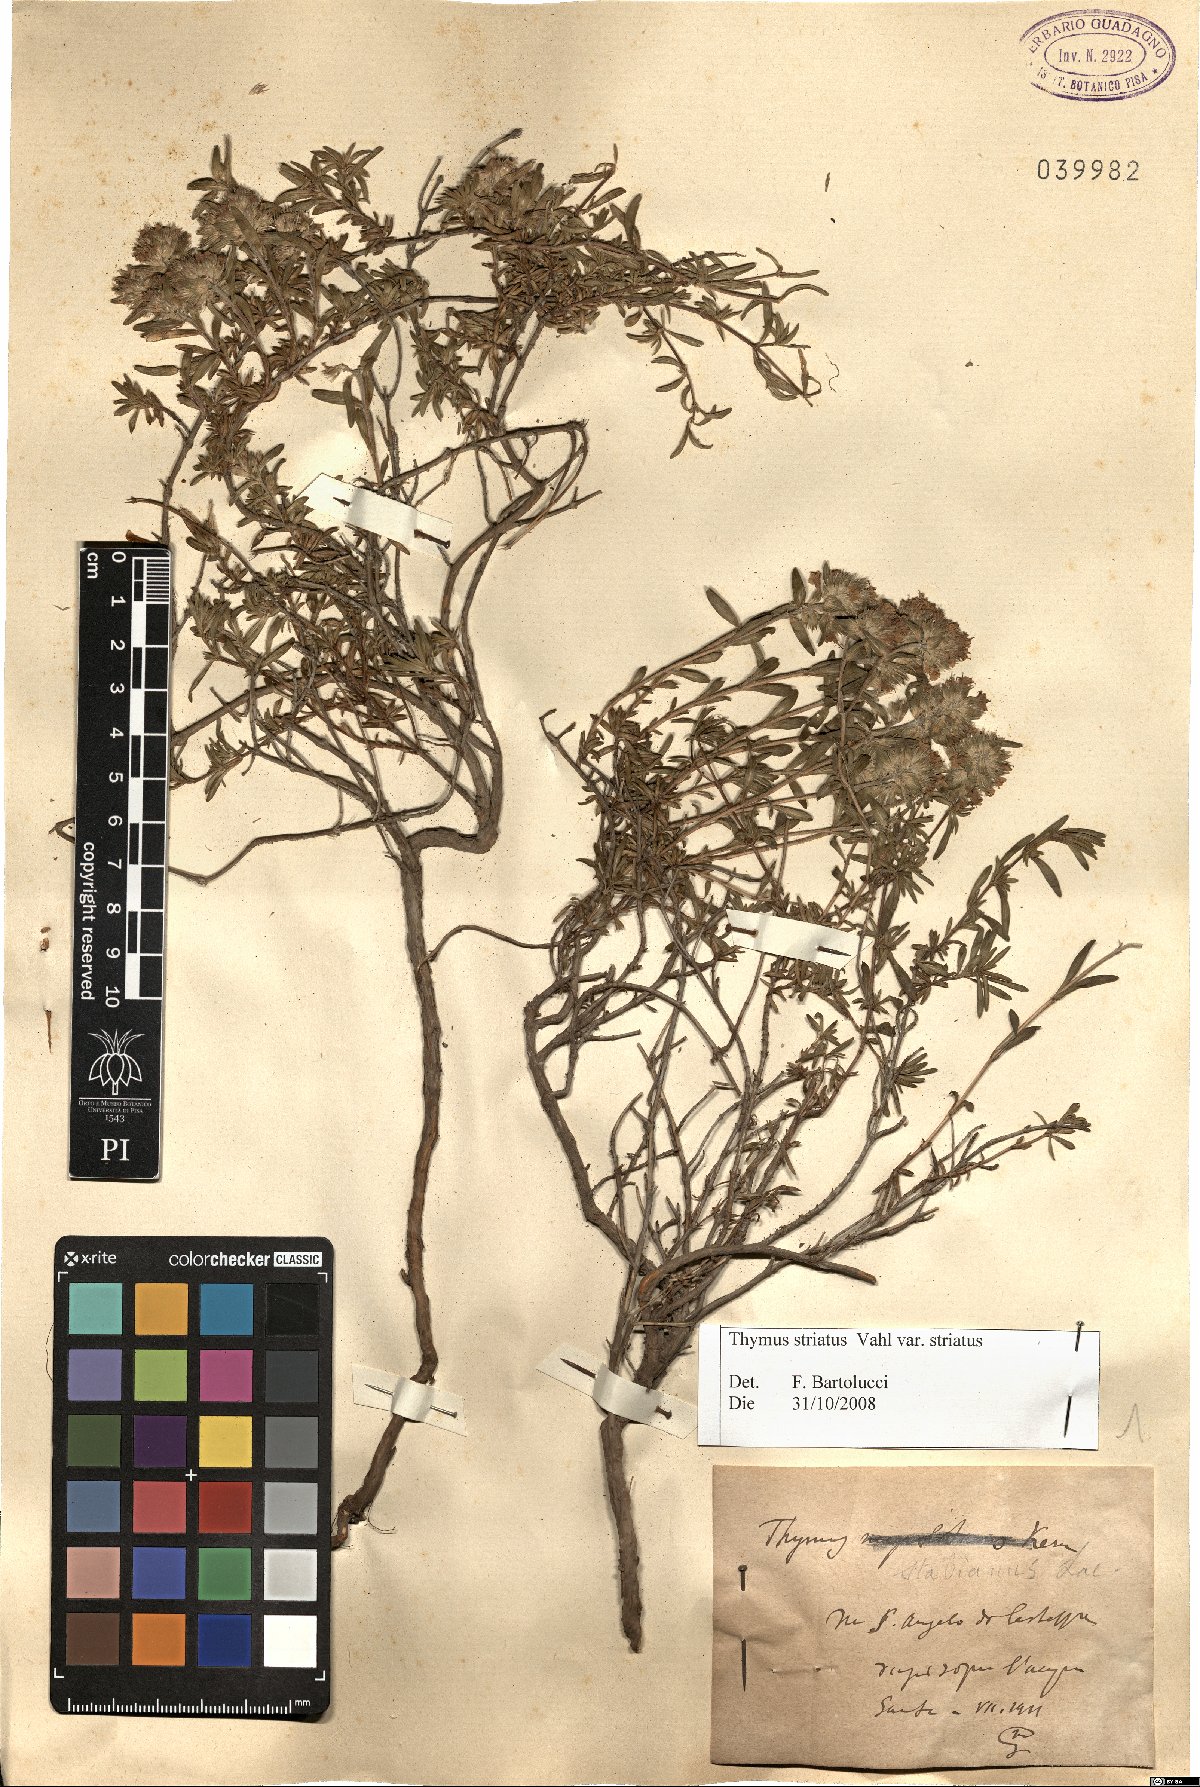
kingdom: Plantae
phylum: Tracheophyta
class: Magnoliopsida
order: Lamiales
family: Lamiaceae
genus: Thymus
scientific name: Thymus striatus
